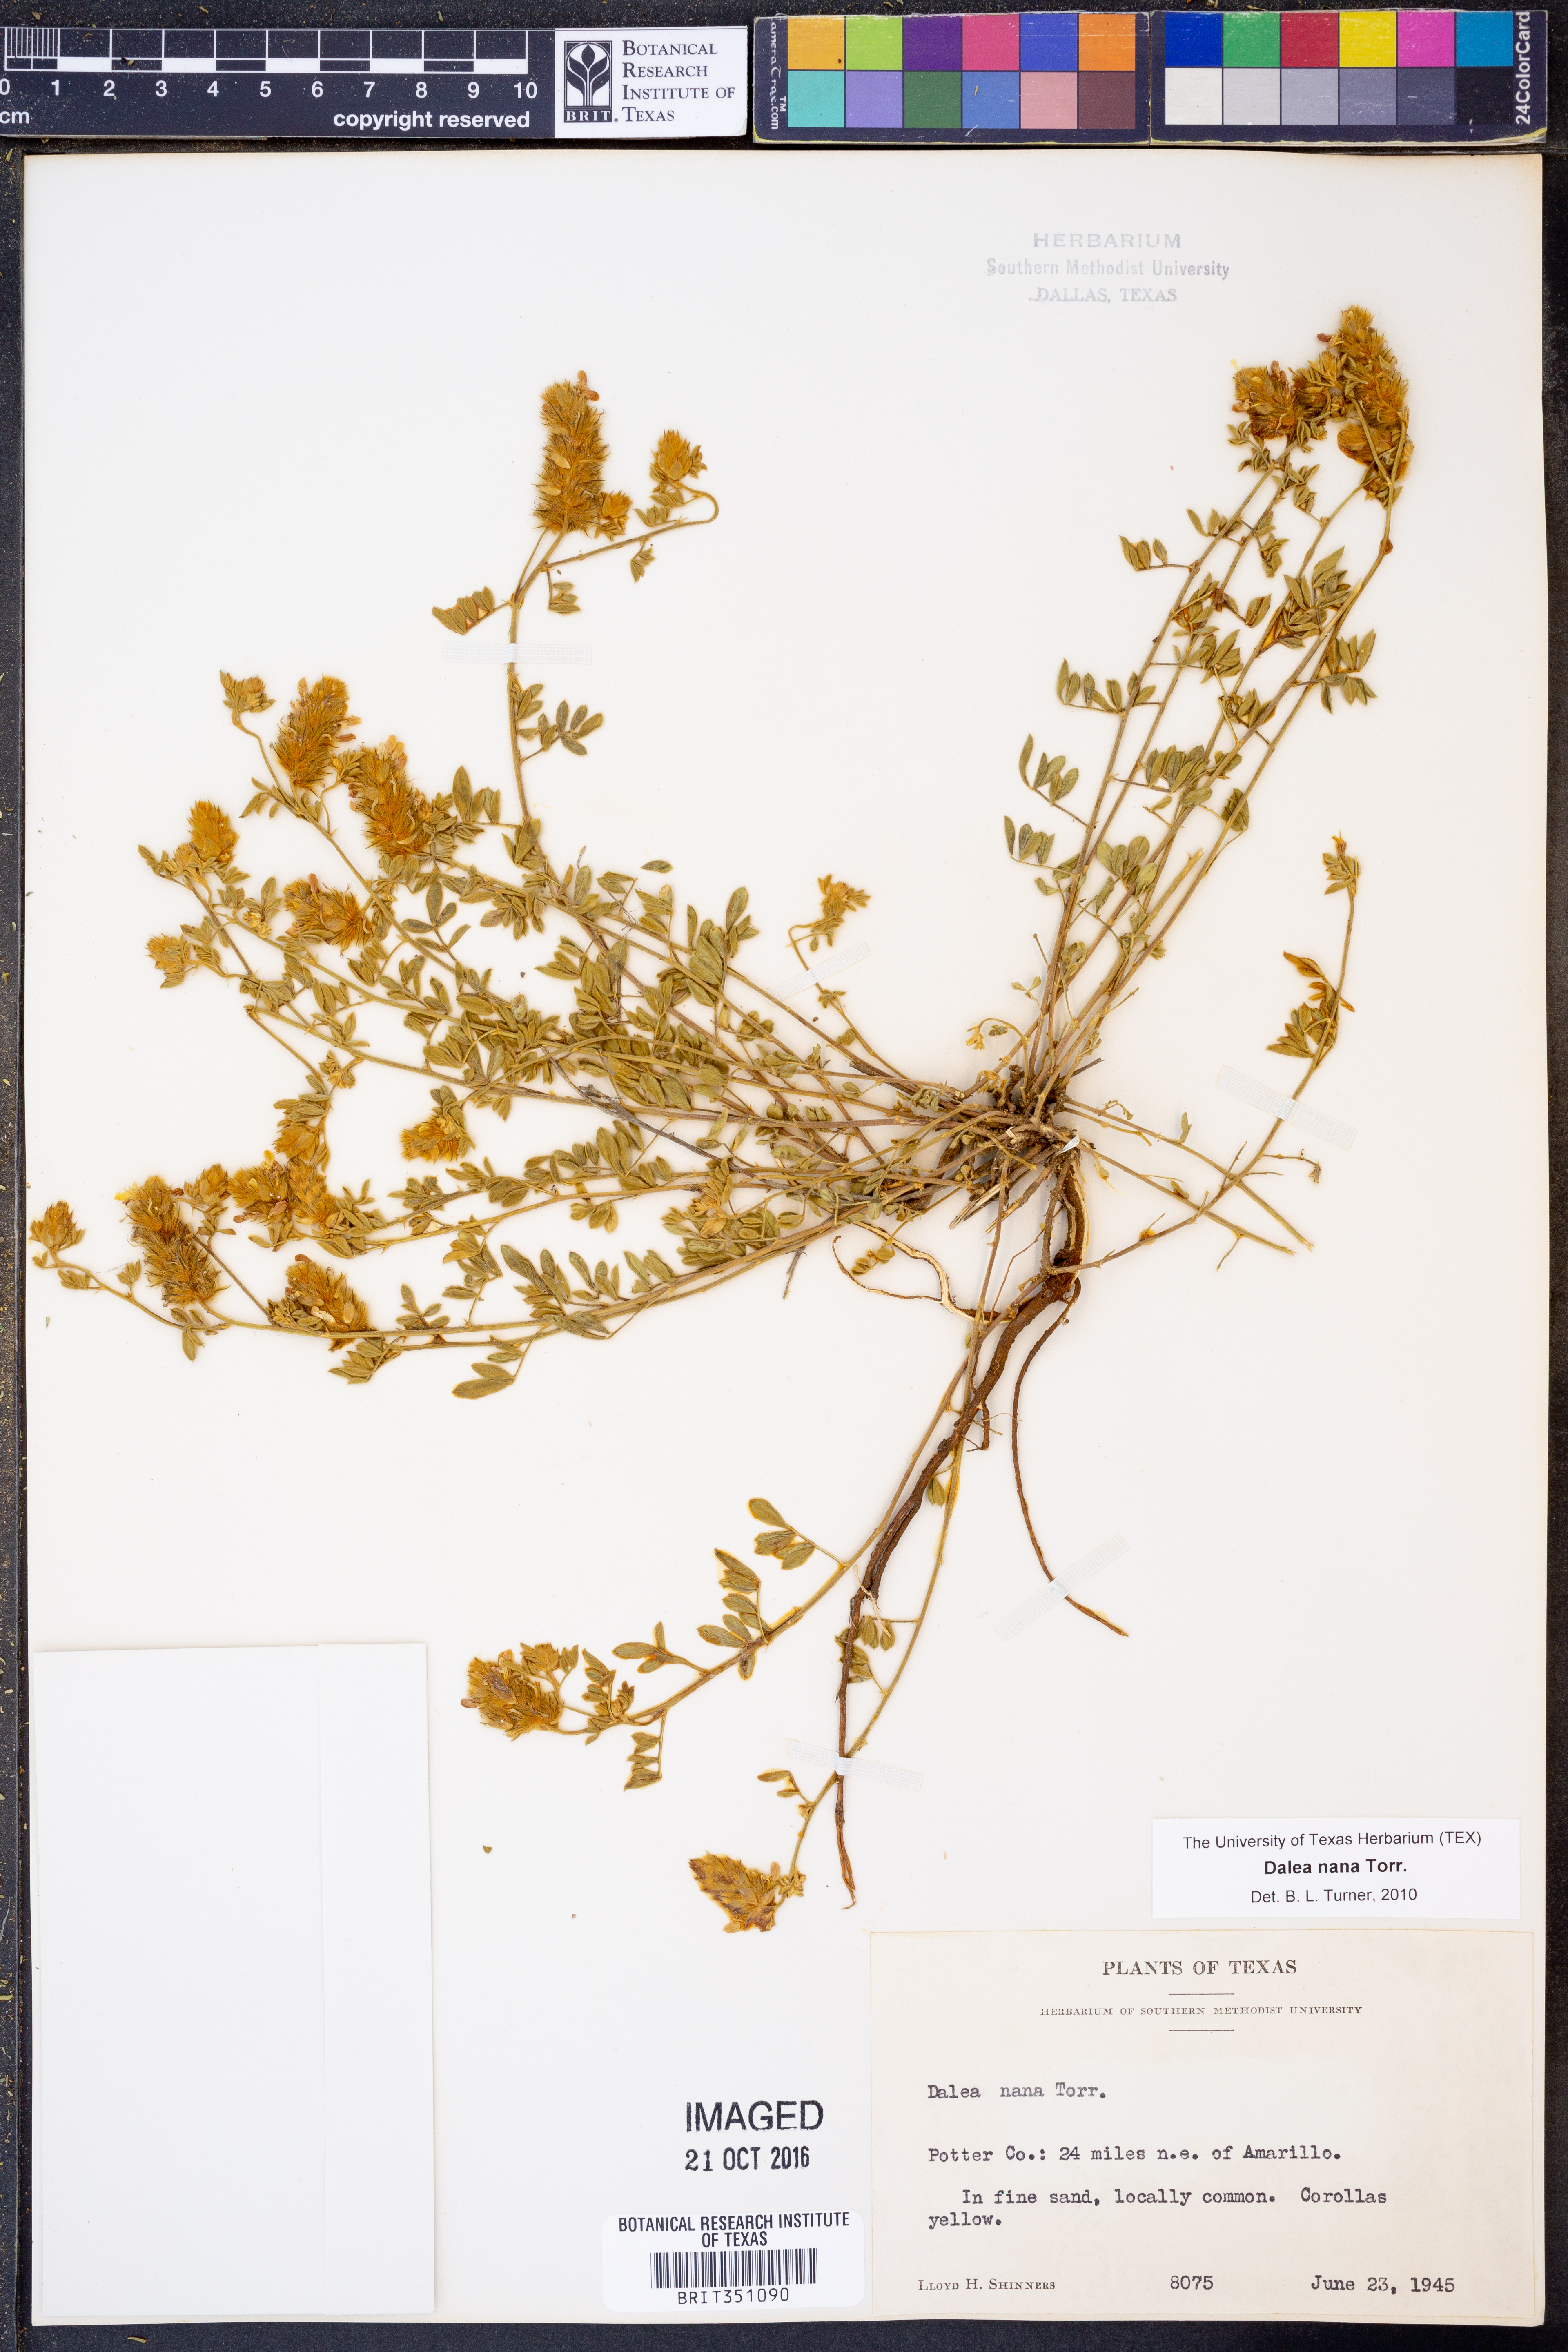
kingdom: Plantae
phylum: Tracheophyta
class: Magnoliopsida
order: Fabales
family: Fabaceae
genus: Dalea
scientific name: Dalea nana
